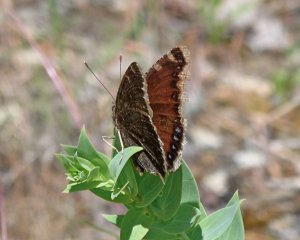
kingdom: Animalia
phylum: Arthropoda
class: Insecta
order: Lepidoptera
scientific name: Lepidoptera
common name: Butterflies
